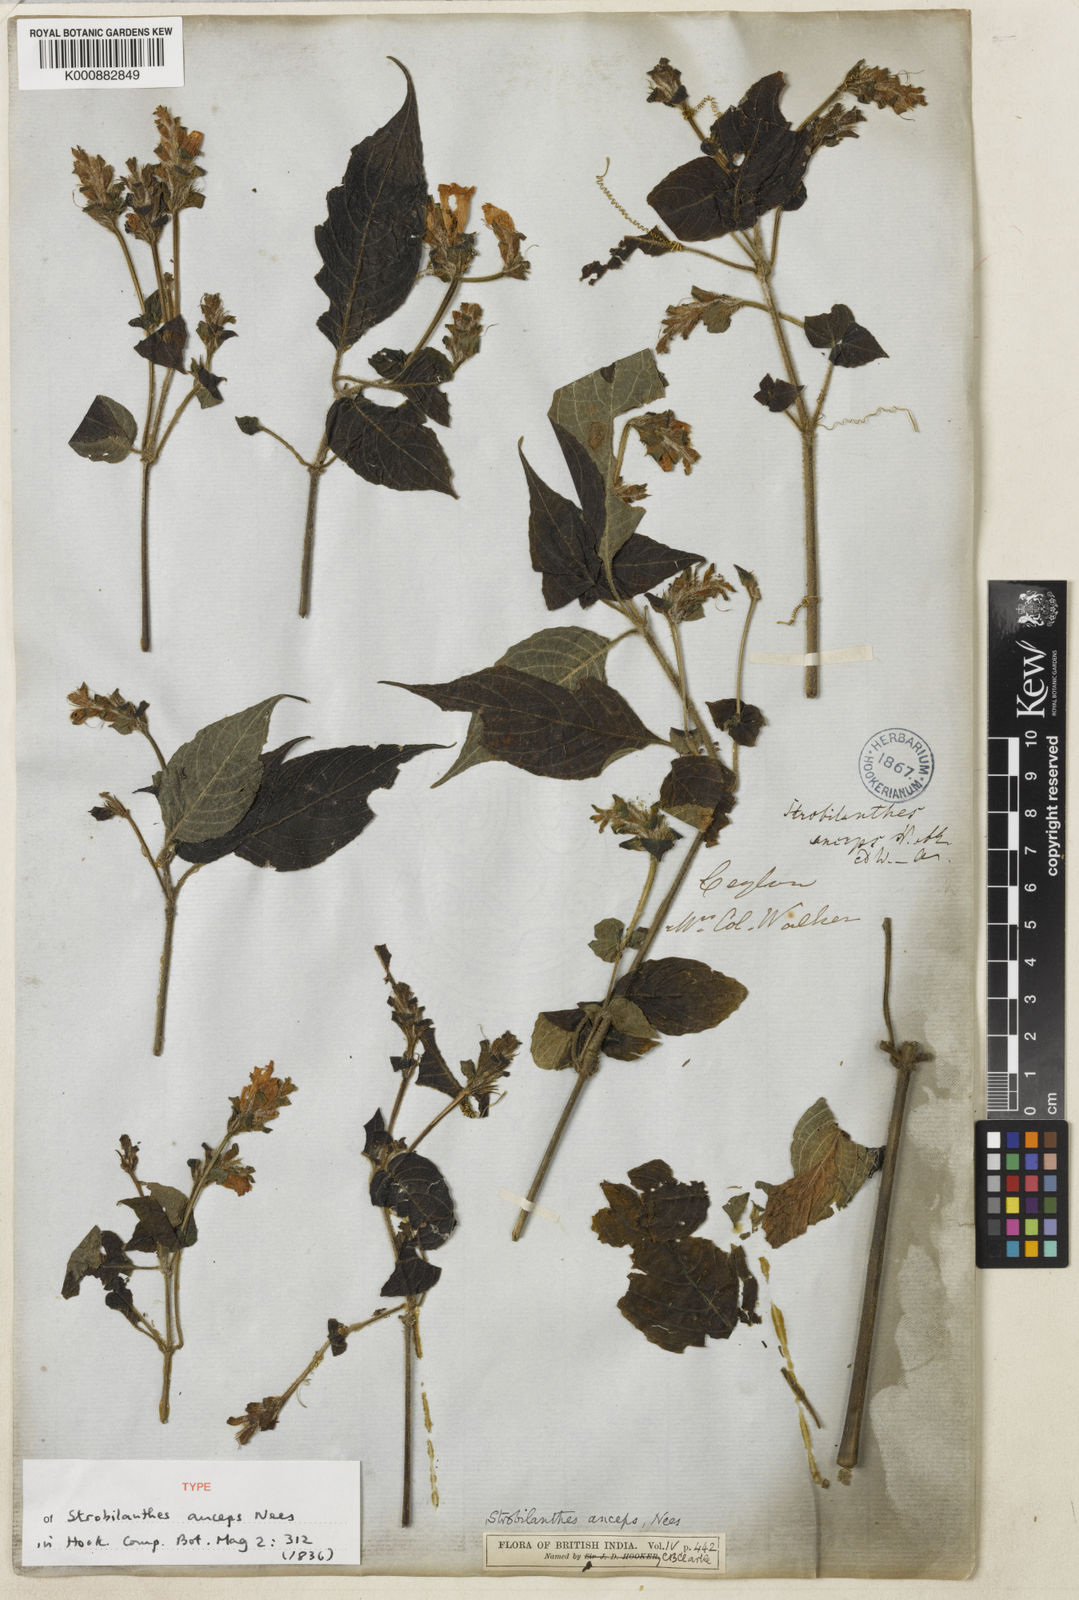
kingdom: Plantae
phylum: Tracheophyta
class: Magnoliopsida
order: Lamiales
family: Acanthaceae
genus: Strobilanthes
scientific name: Strobilanthes anceps
